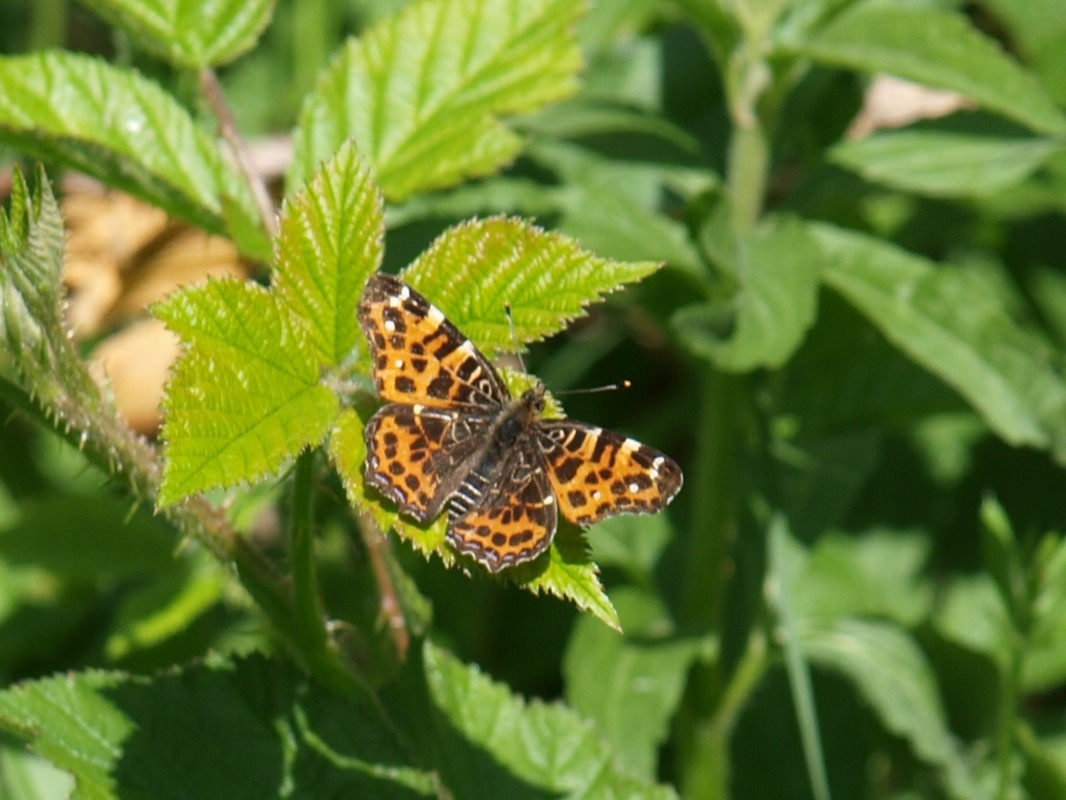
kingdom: Animalia
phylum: Arthropoda
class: Insecta
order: Lepidoptera
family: Nymphalidae
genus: Araschnia
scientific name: Araschnia levana
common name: Nældesommerfugl
